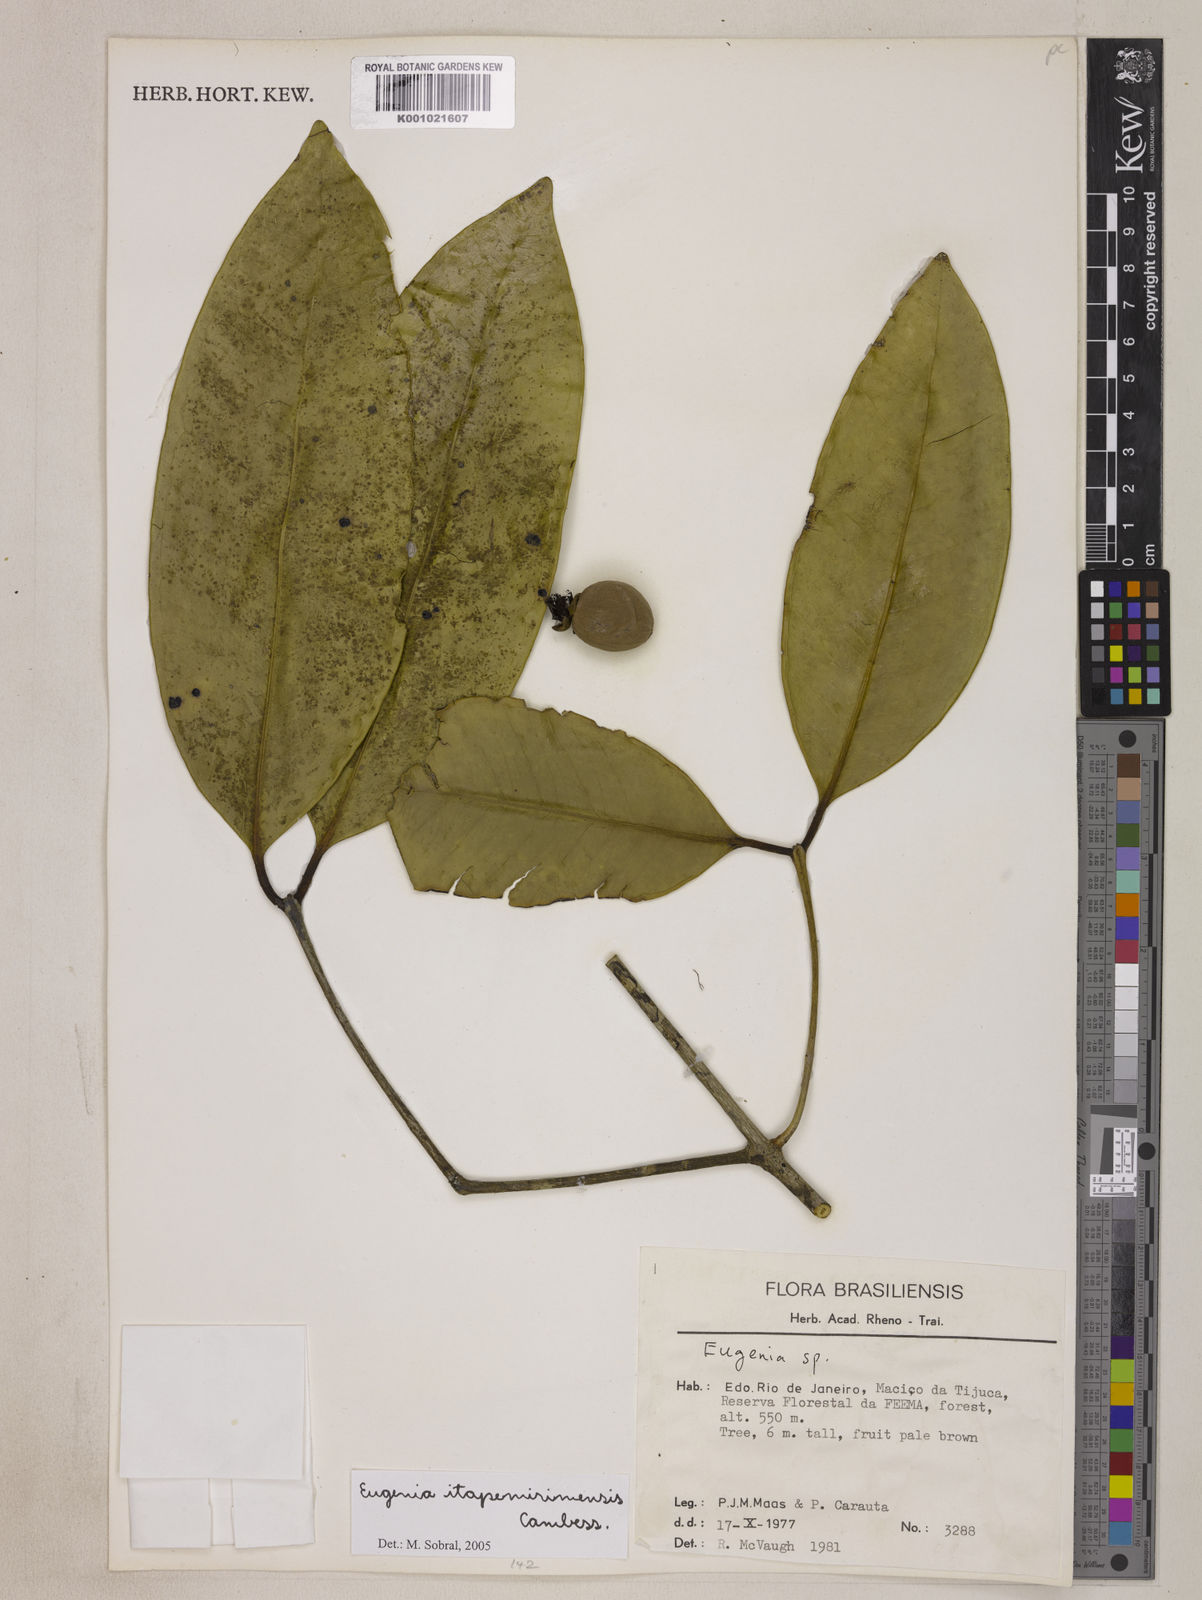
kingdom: Plantae
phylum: Tracheophyta
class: Magnoliopsida
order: Myrtales
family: Myrtaceae
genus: Eugenia
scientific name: Eugenia itapemirimensis
